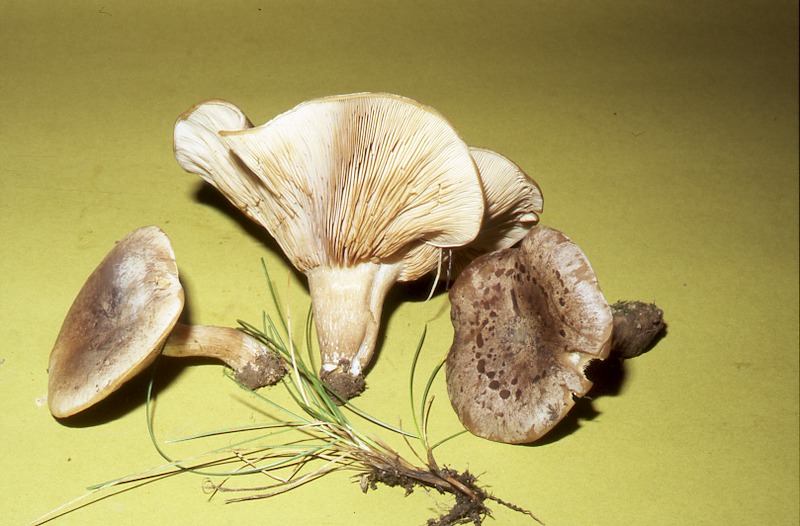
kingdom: Fungi
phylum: Basidiomycota
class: Agaricomycetes
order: Agaricales
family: Tricholomataceae
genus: Lepista
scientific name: Lepista rickenii
